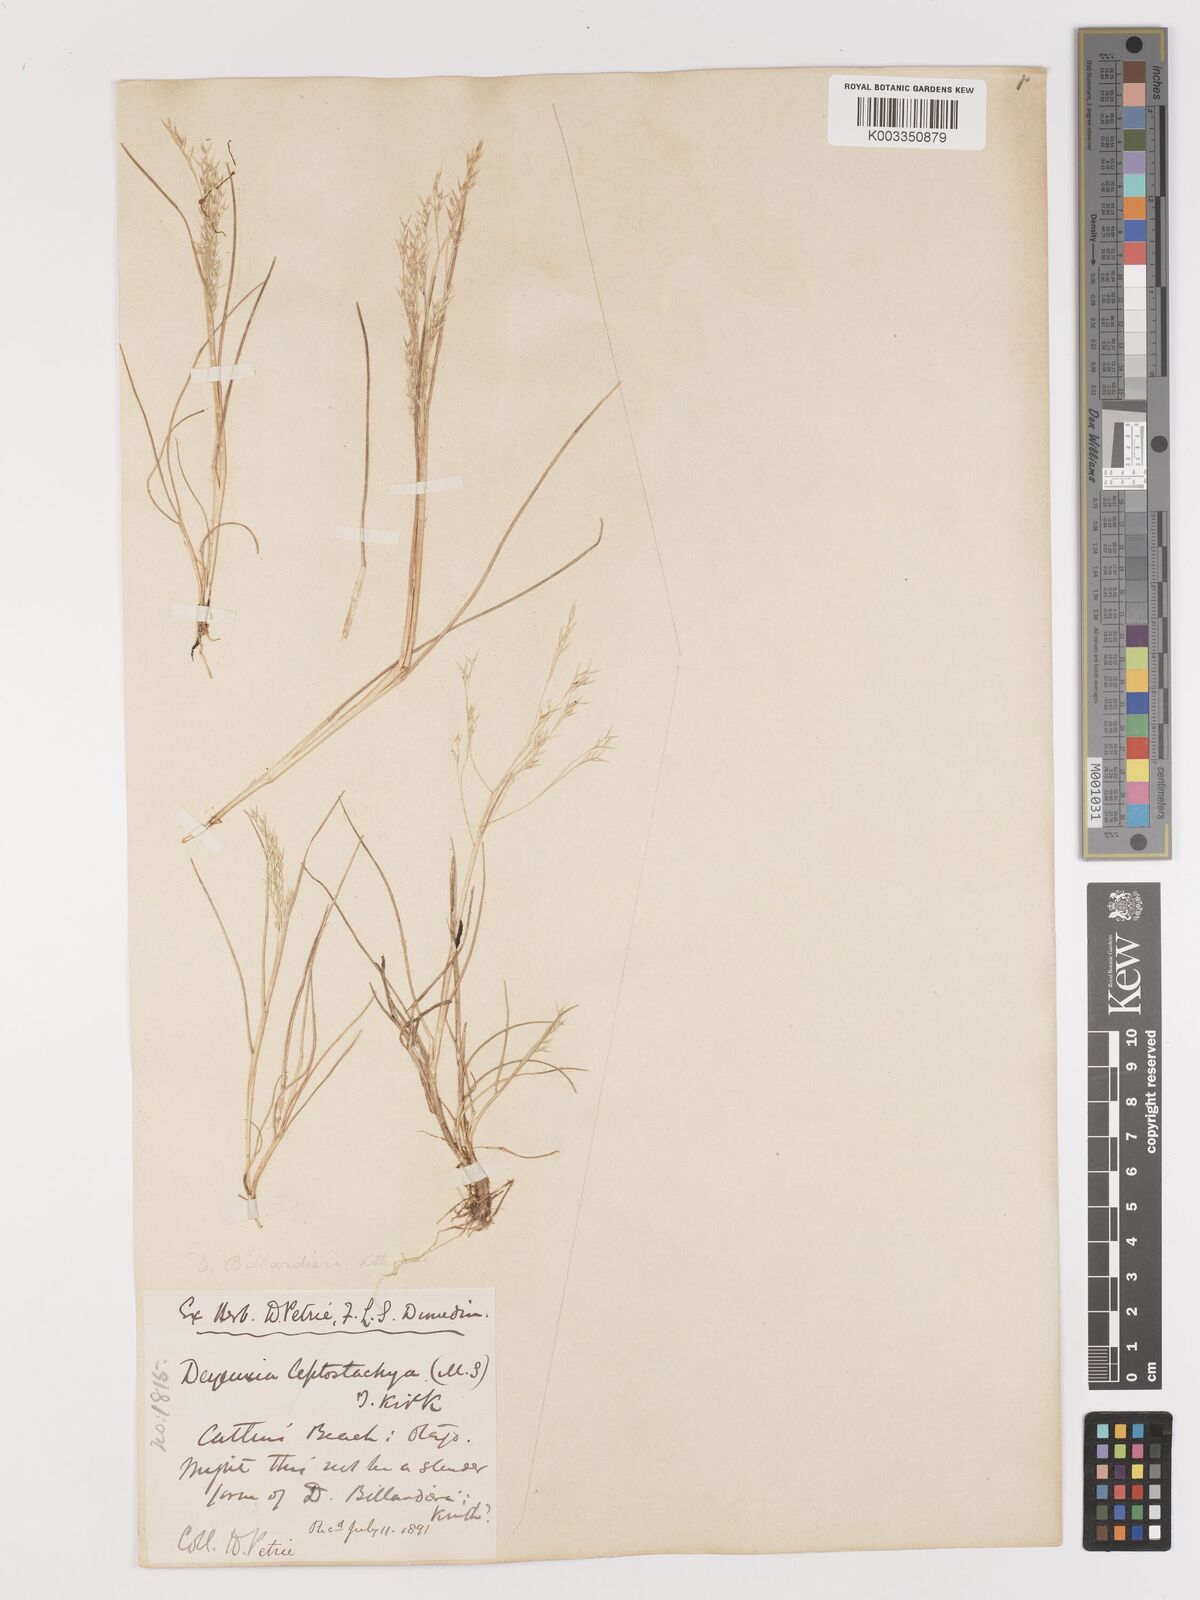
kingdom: Plantae
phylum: Tracheophyta
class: Liliopsida
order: Poales
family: Poaceae
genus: Lachnagrostis
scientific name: Lachnagrostis billardierei
